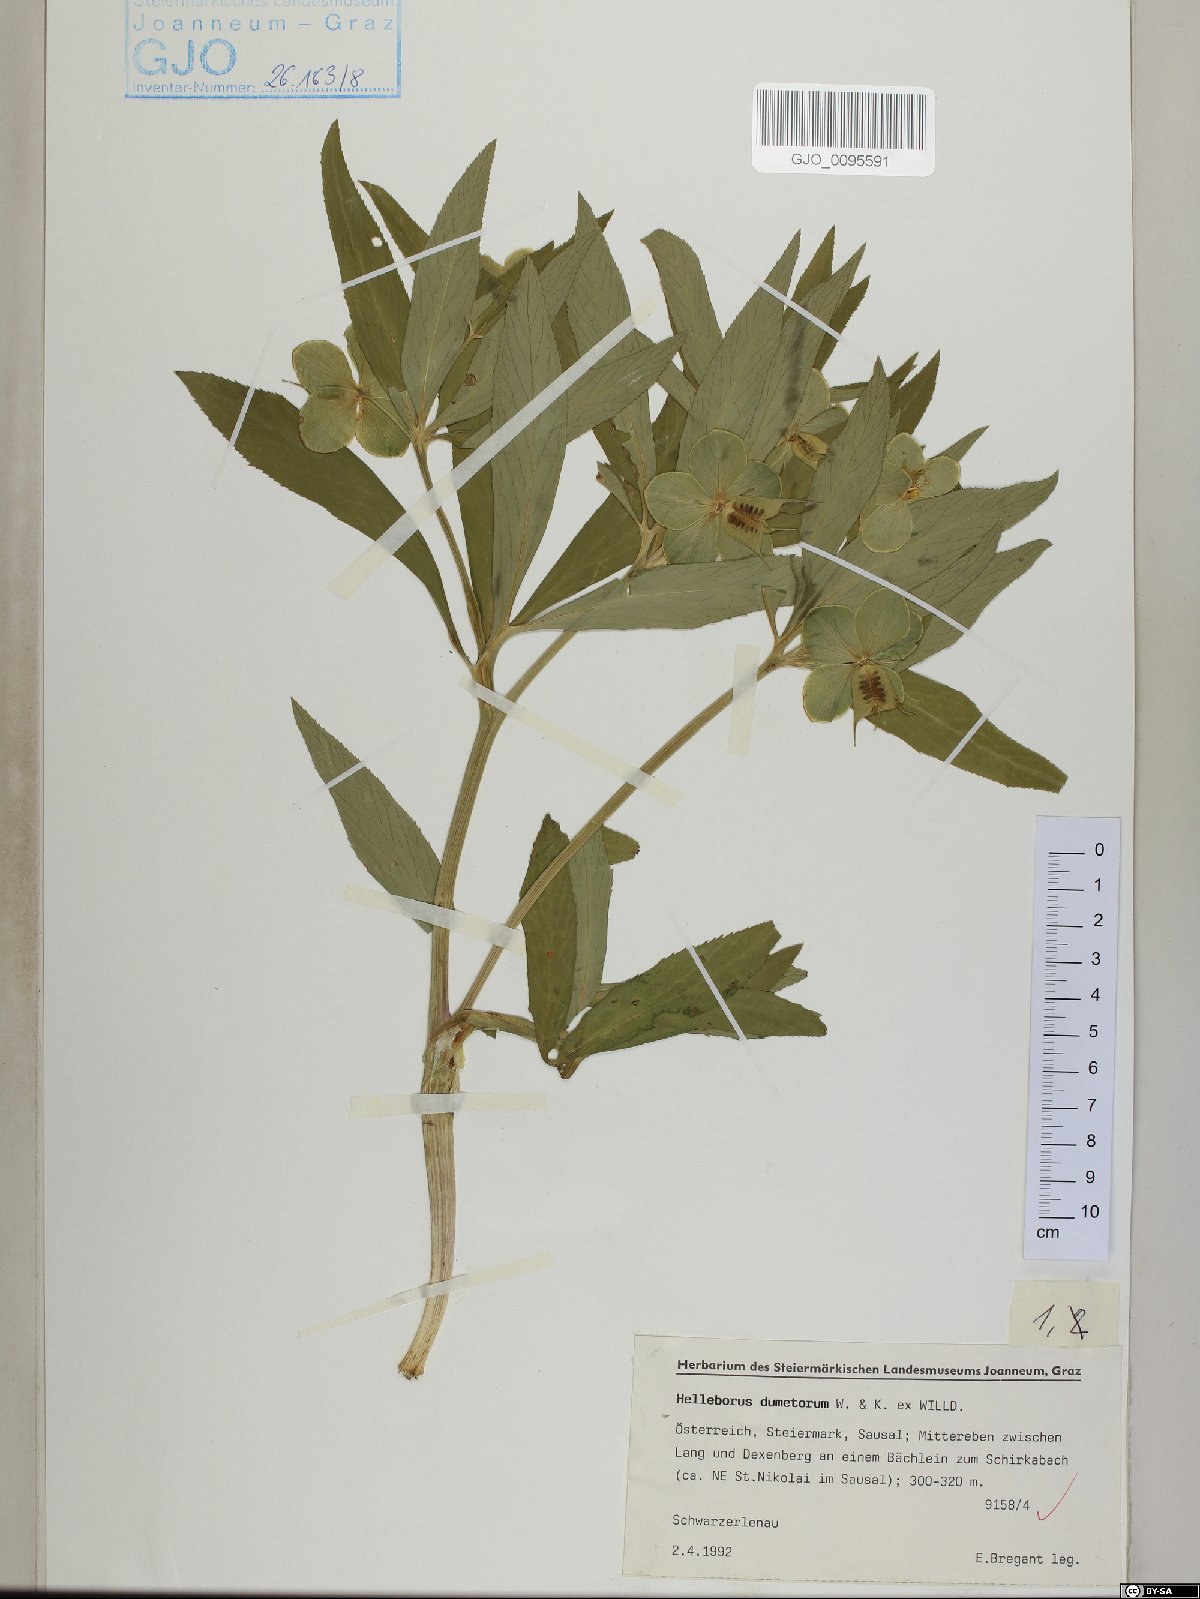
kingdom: Plantae
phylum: Tracheophyta
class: Magnoliopsida
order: Ranunculales
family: Ranunculaceae
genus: Helleborus
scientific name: Helleborus dumetorum
